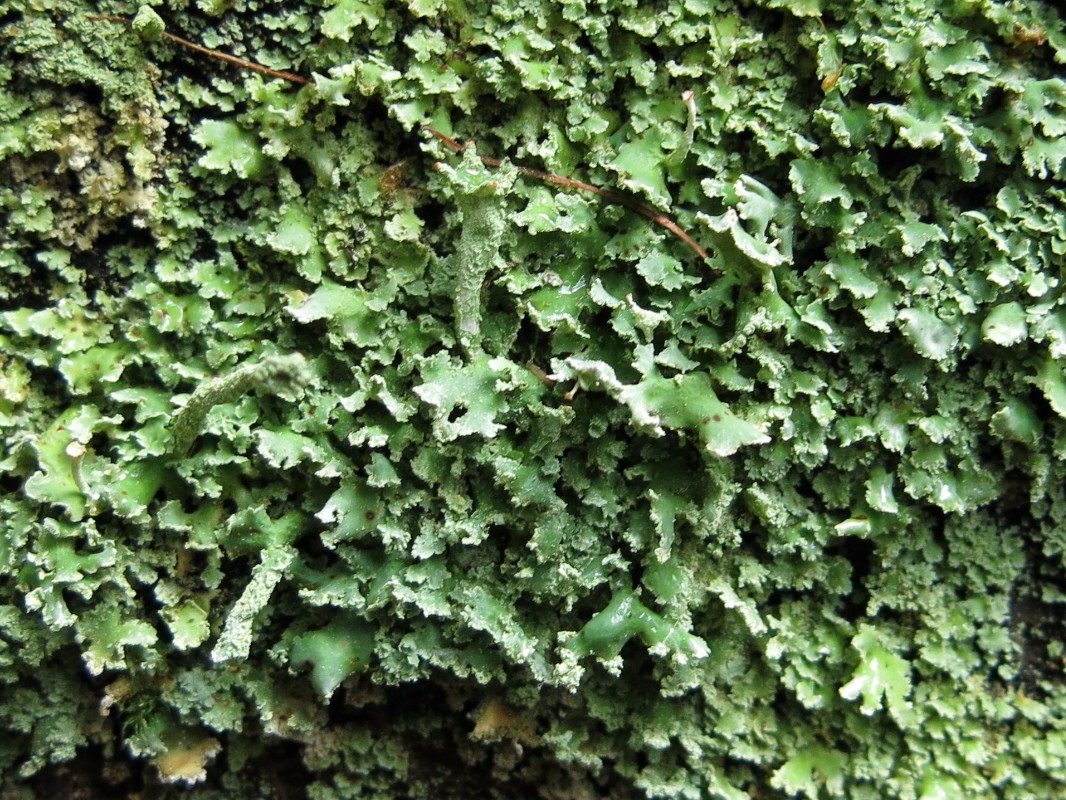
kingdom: Fungi
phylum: Ascomycota
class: Lecanoromycetes
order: Lecanorales
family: Cladoniaceae
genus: Cladonia
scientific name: Cladonia digitata
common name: finger-bægerlav
